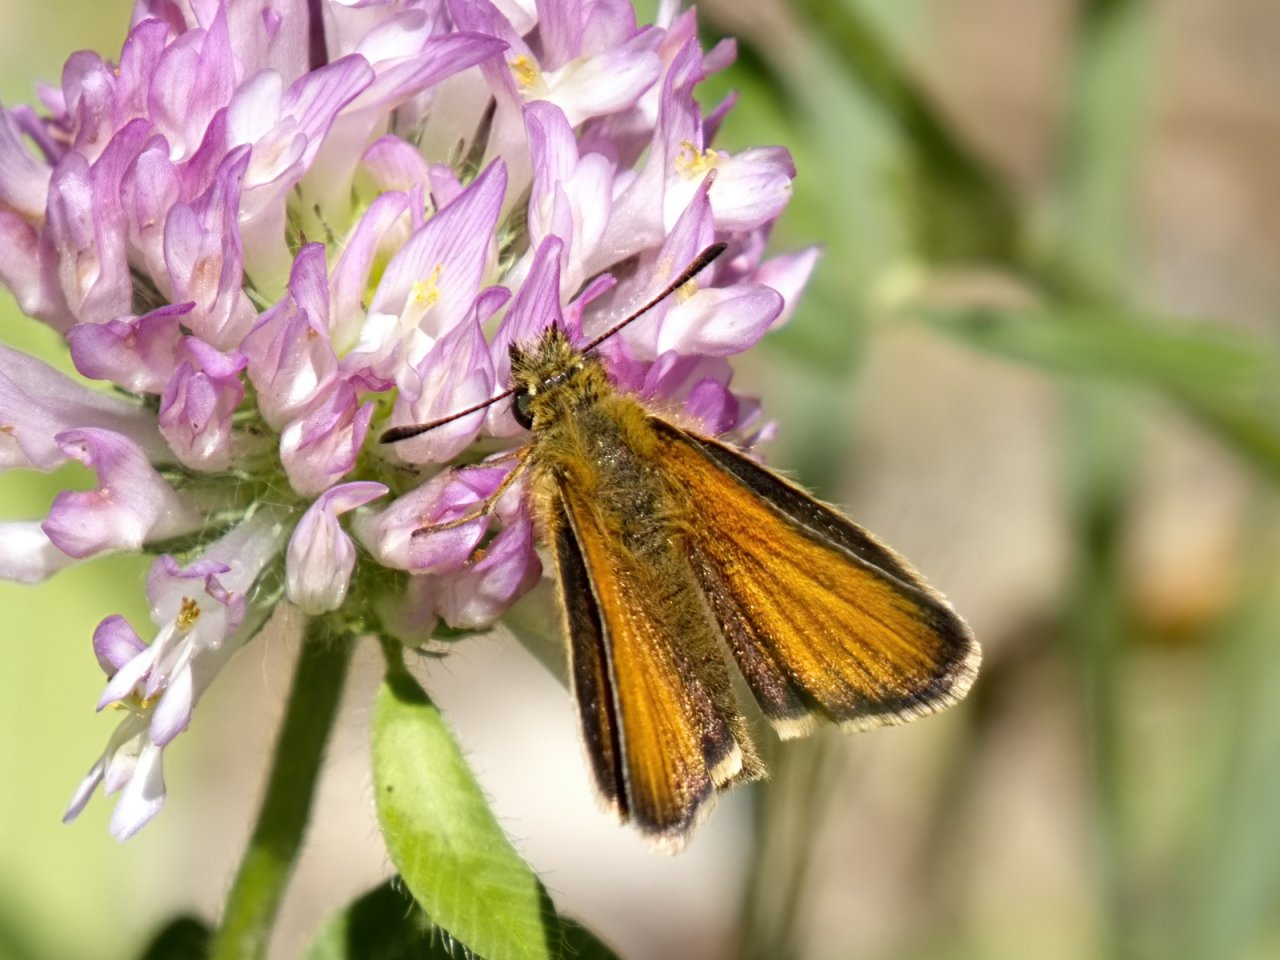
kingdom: Animalia
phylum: Arthropoda
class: Insecta
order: Lepidoptera
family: Hesperiidae
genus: Thymelicus
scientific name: Thymelicus lineola
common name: European Skipper
